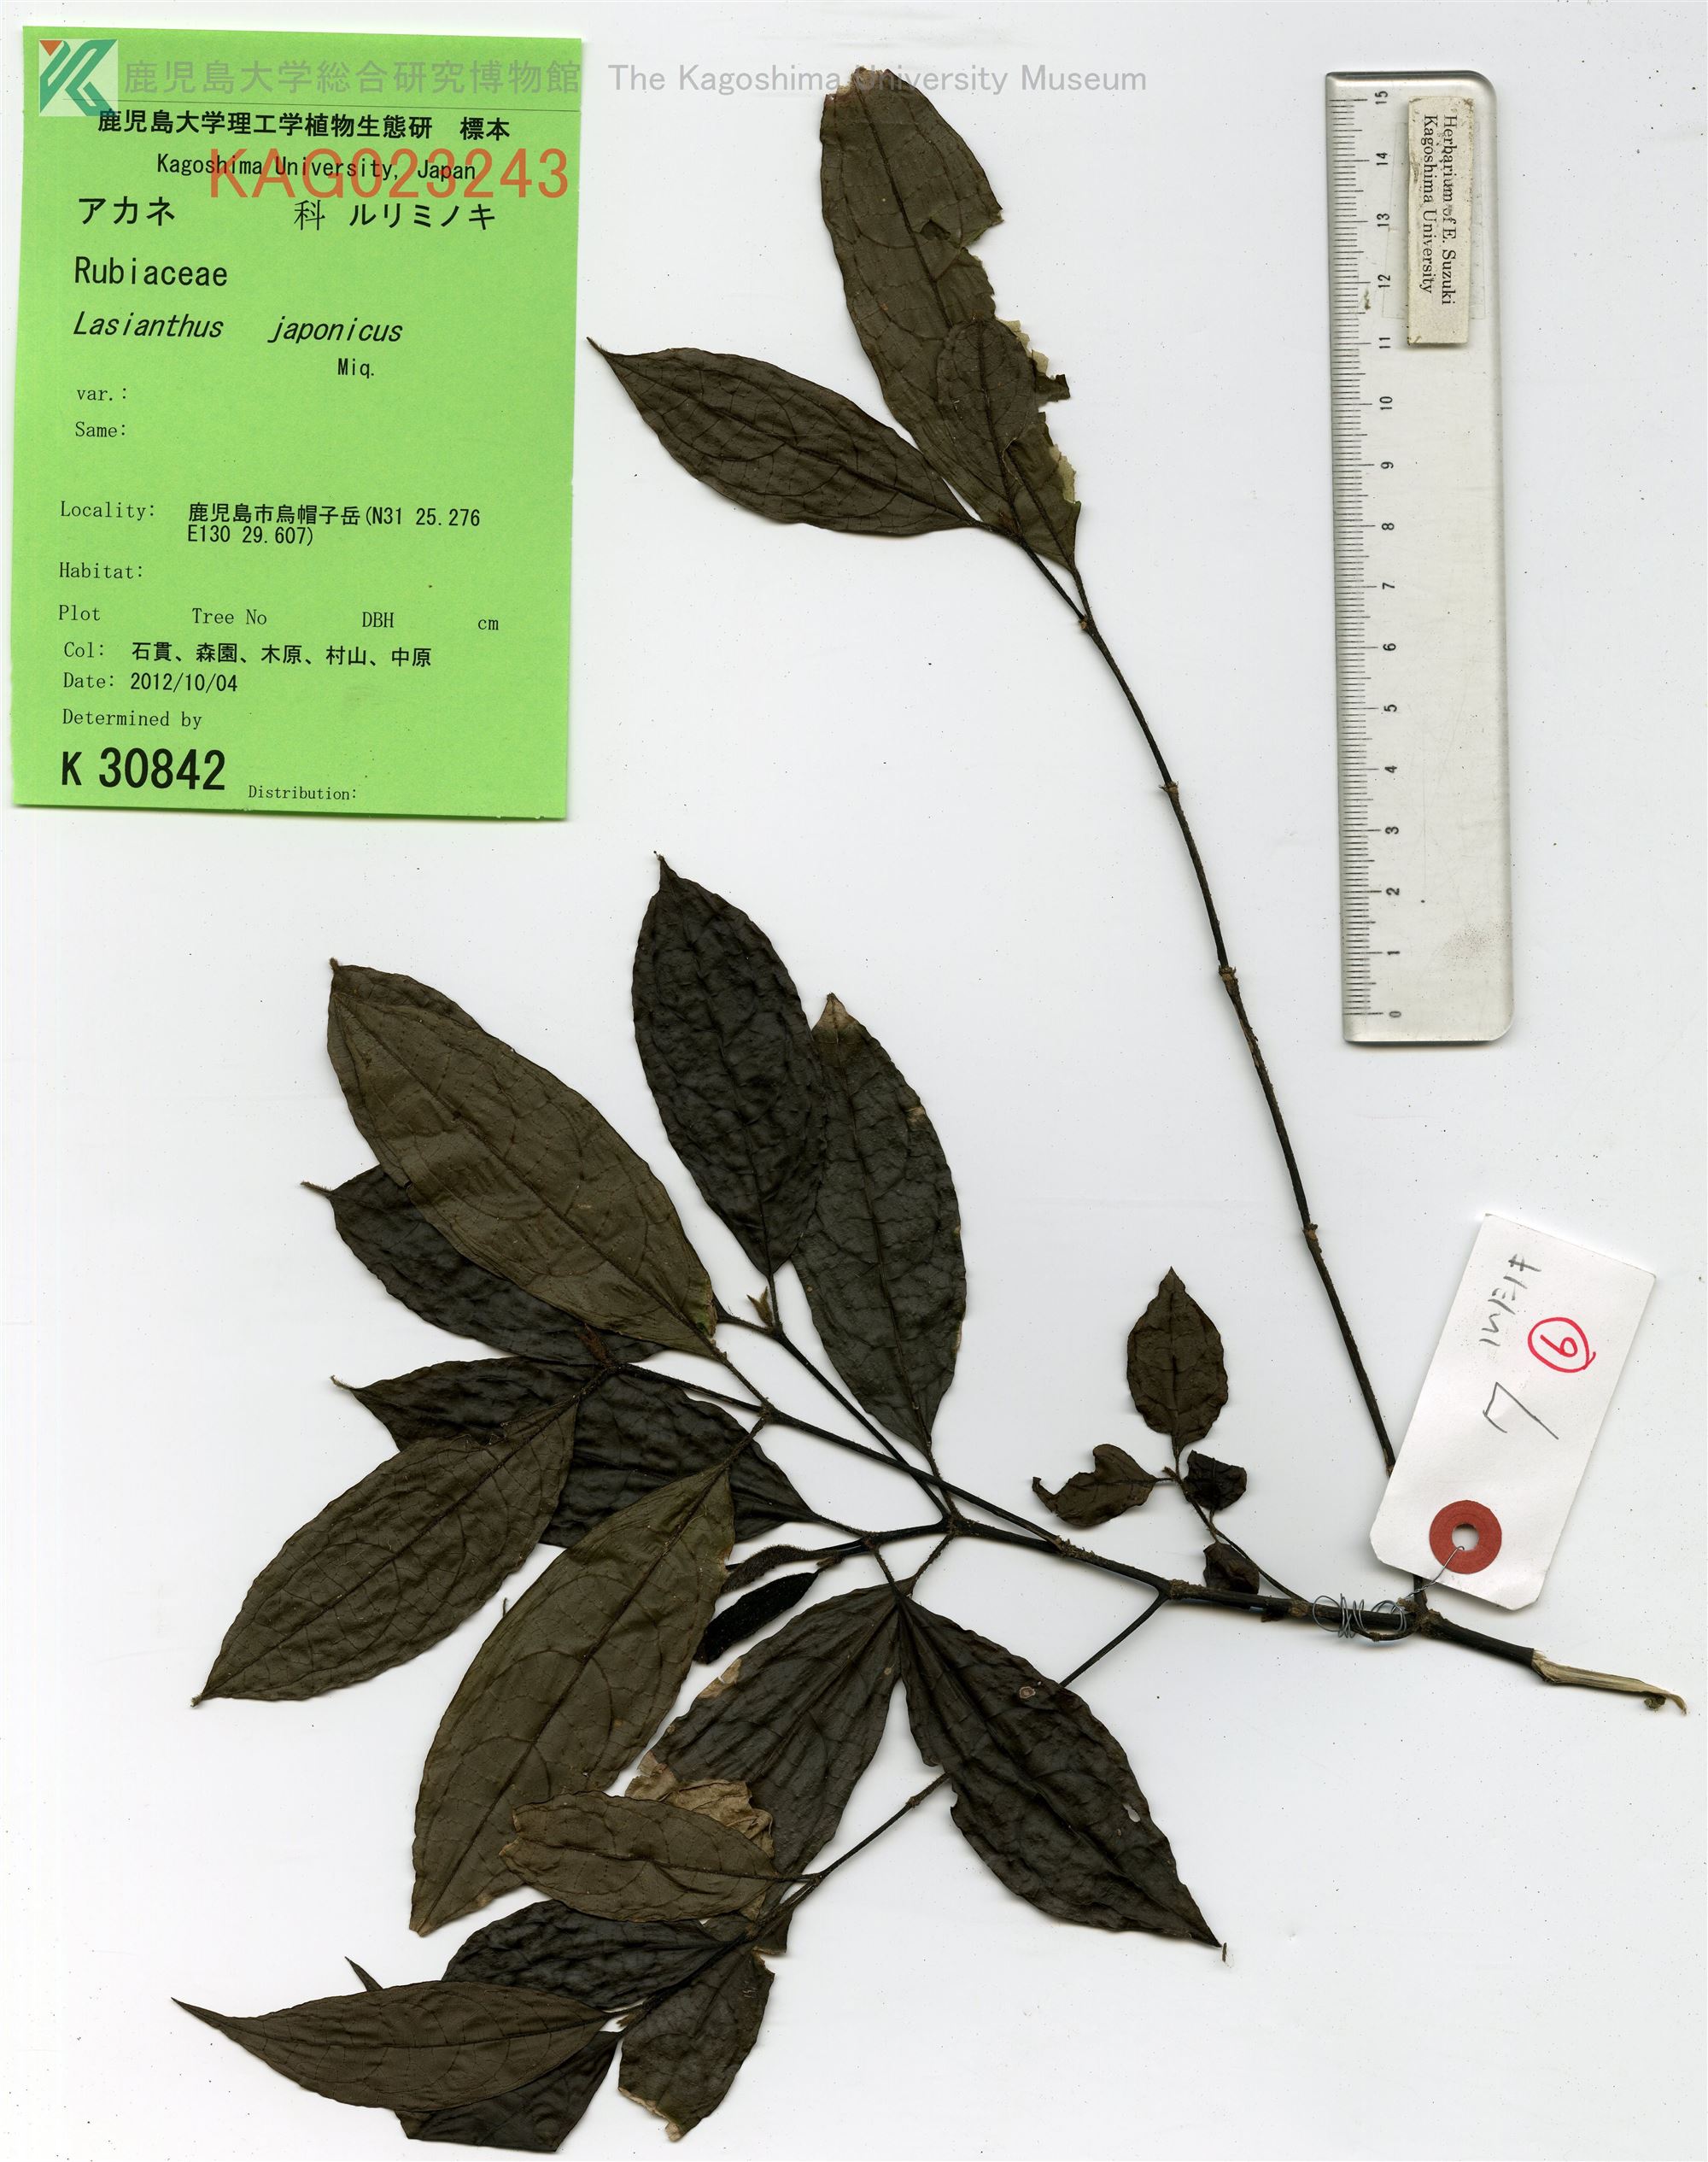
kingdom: Plantae
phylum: Tracheophyta
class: Magnoliopsida
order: Gentianales
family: Rubiaceae
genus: Lasianthus
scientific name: Lasianthus japonicus
